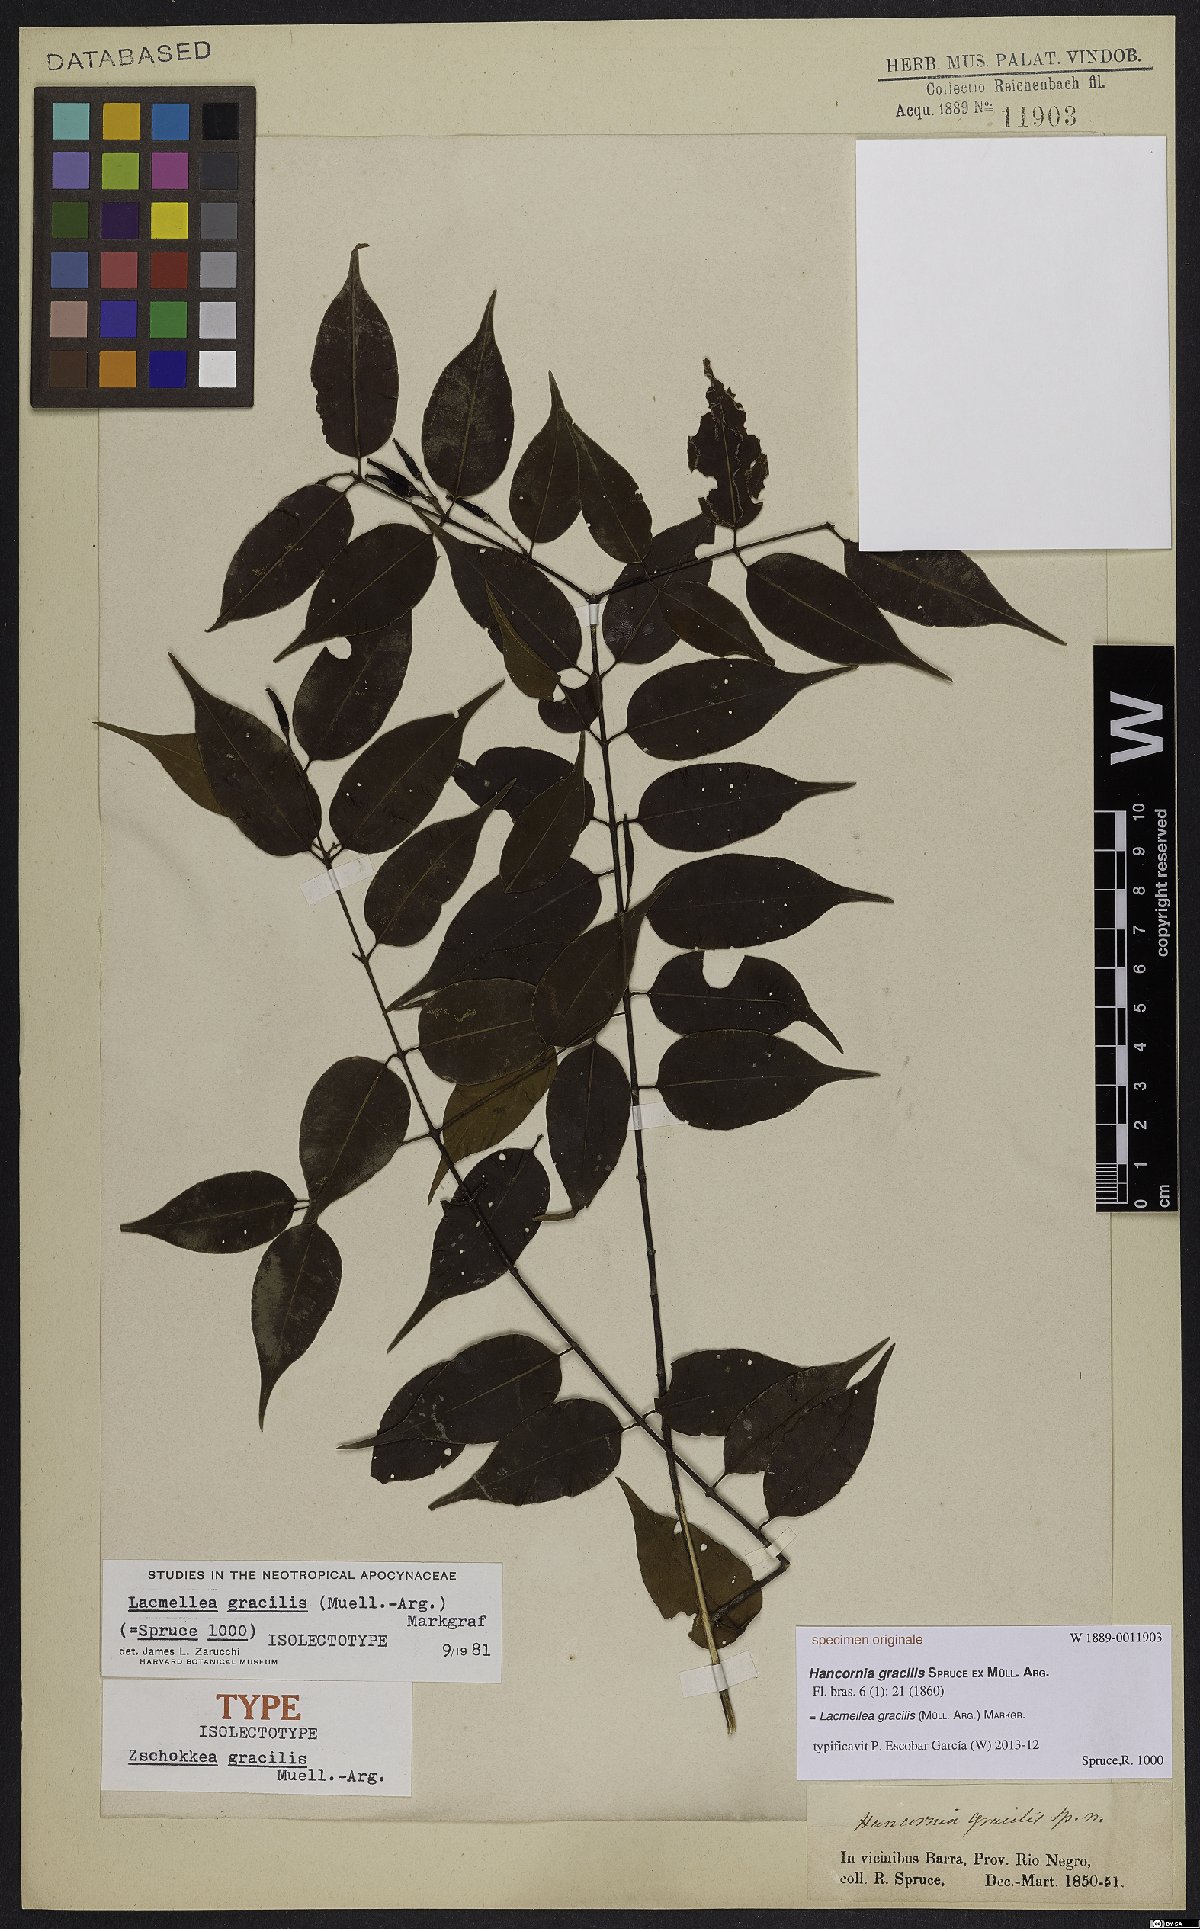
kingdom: Plantae
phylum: Tracheophyta
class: Magnoliopsida
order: Gentianales
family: Apocynaceae
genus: Lacmellea
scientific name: Lacmellea gracilis
